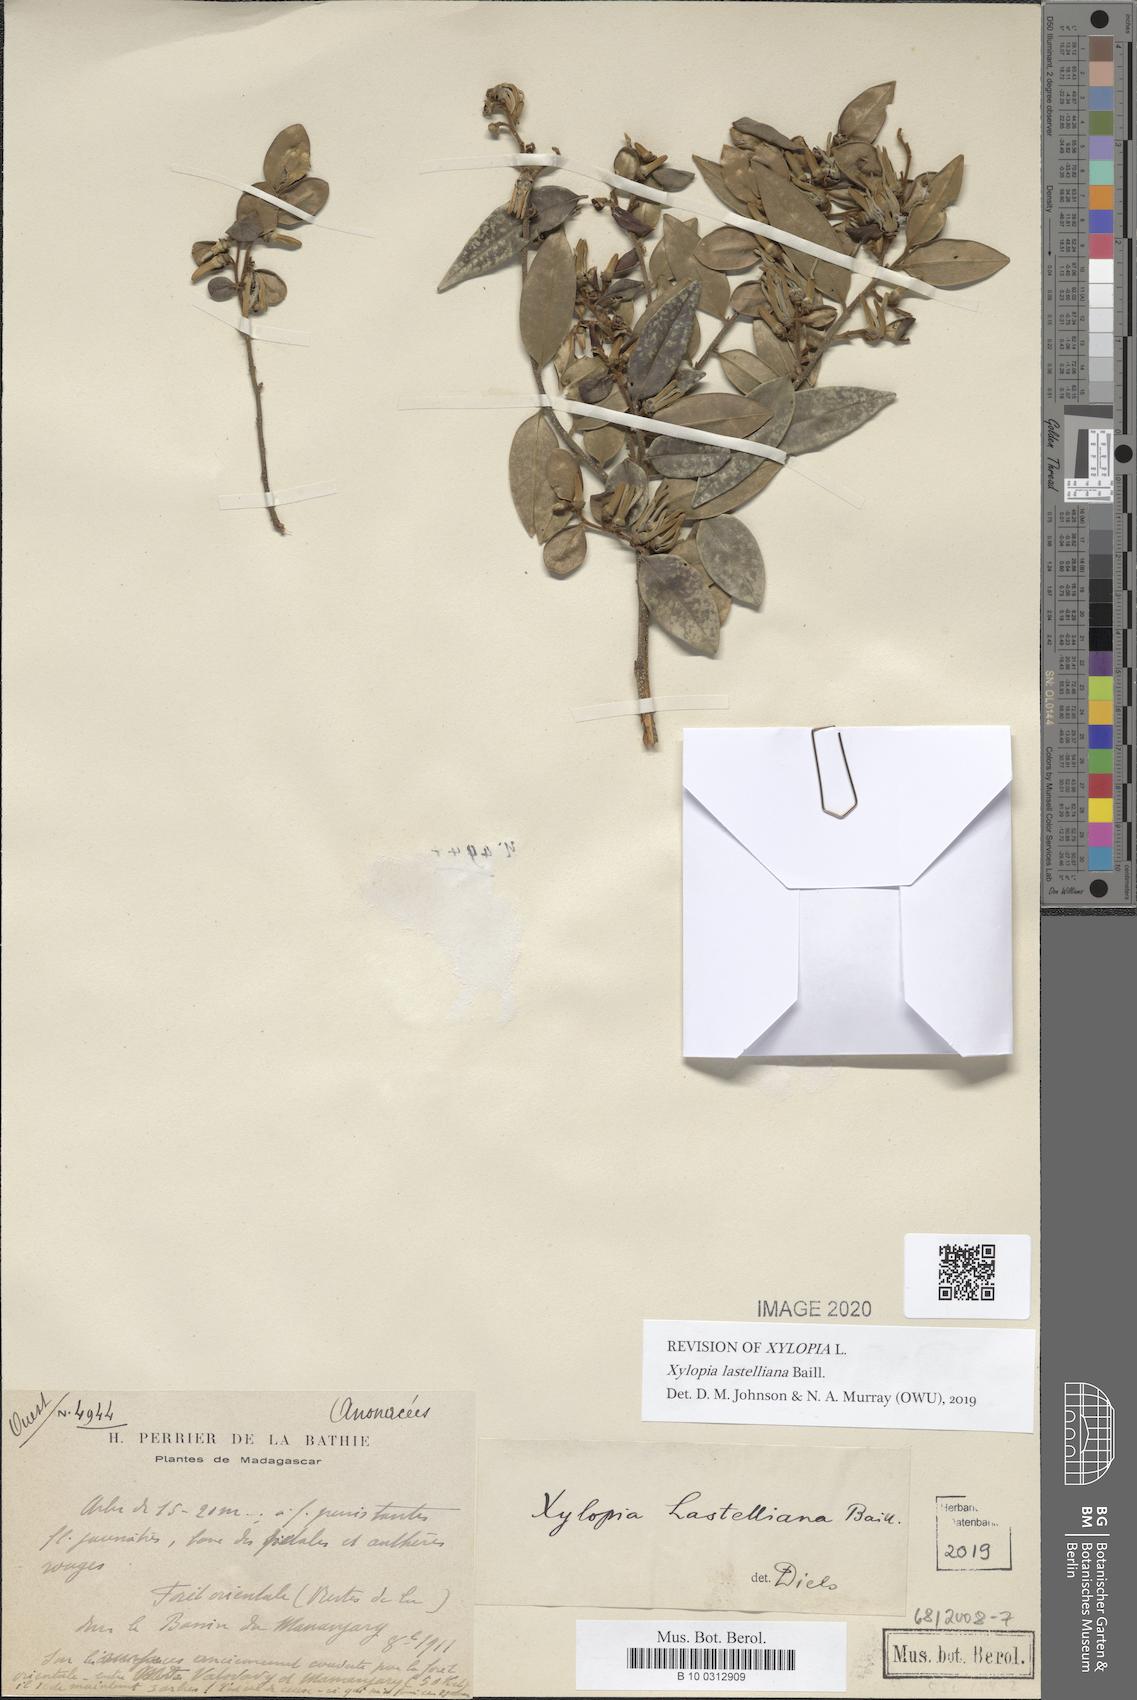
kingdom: Plantae
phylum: Tracheophyta
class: Magnoliopsida
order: Magnoliales
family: Annonaceae
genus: Xylopia
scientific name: Xylopia lastelliana
